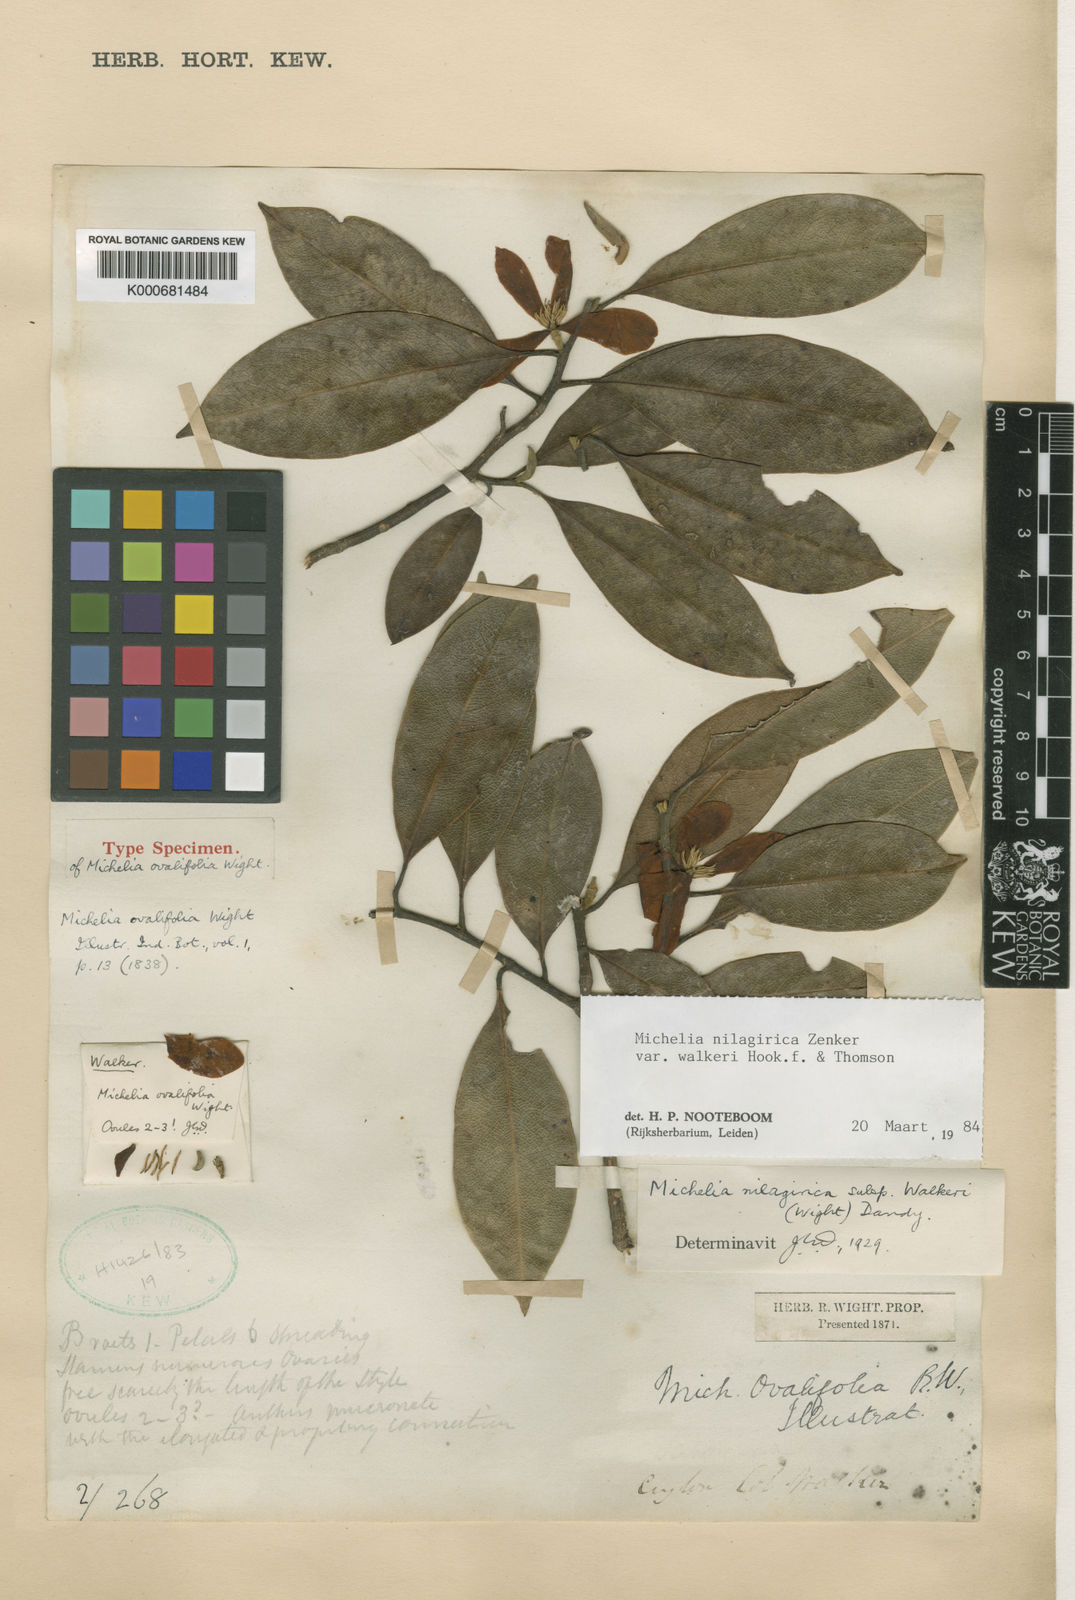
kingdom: Plantae
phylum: Tracheophyta
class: Magnoliopsida
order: Magnoliales
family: Magnoliaceae
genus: Magnolia
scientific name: Magnolia nilagirica
